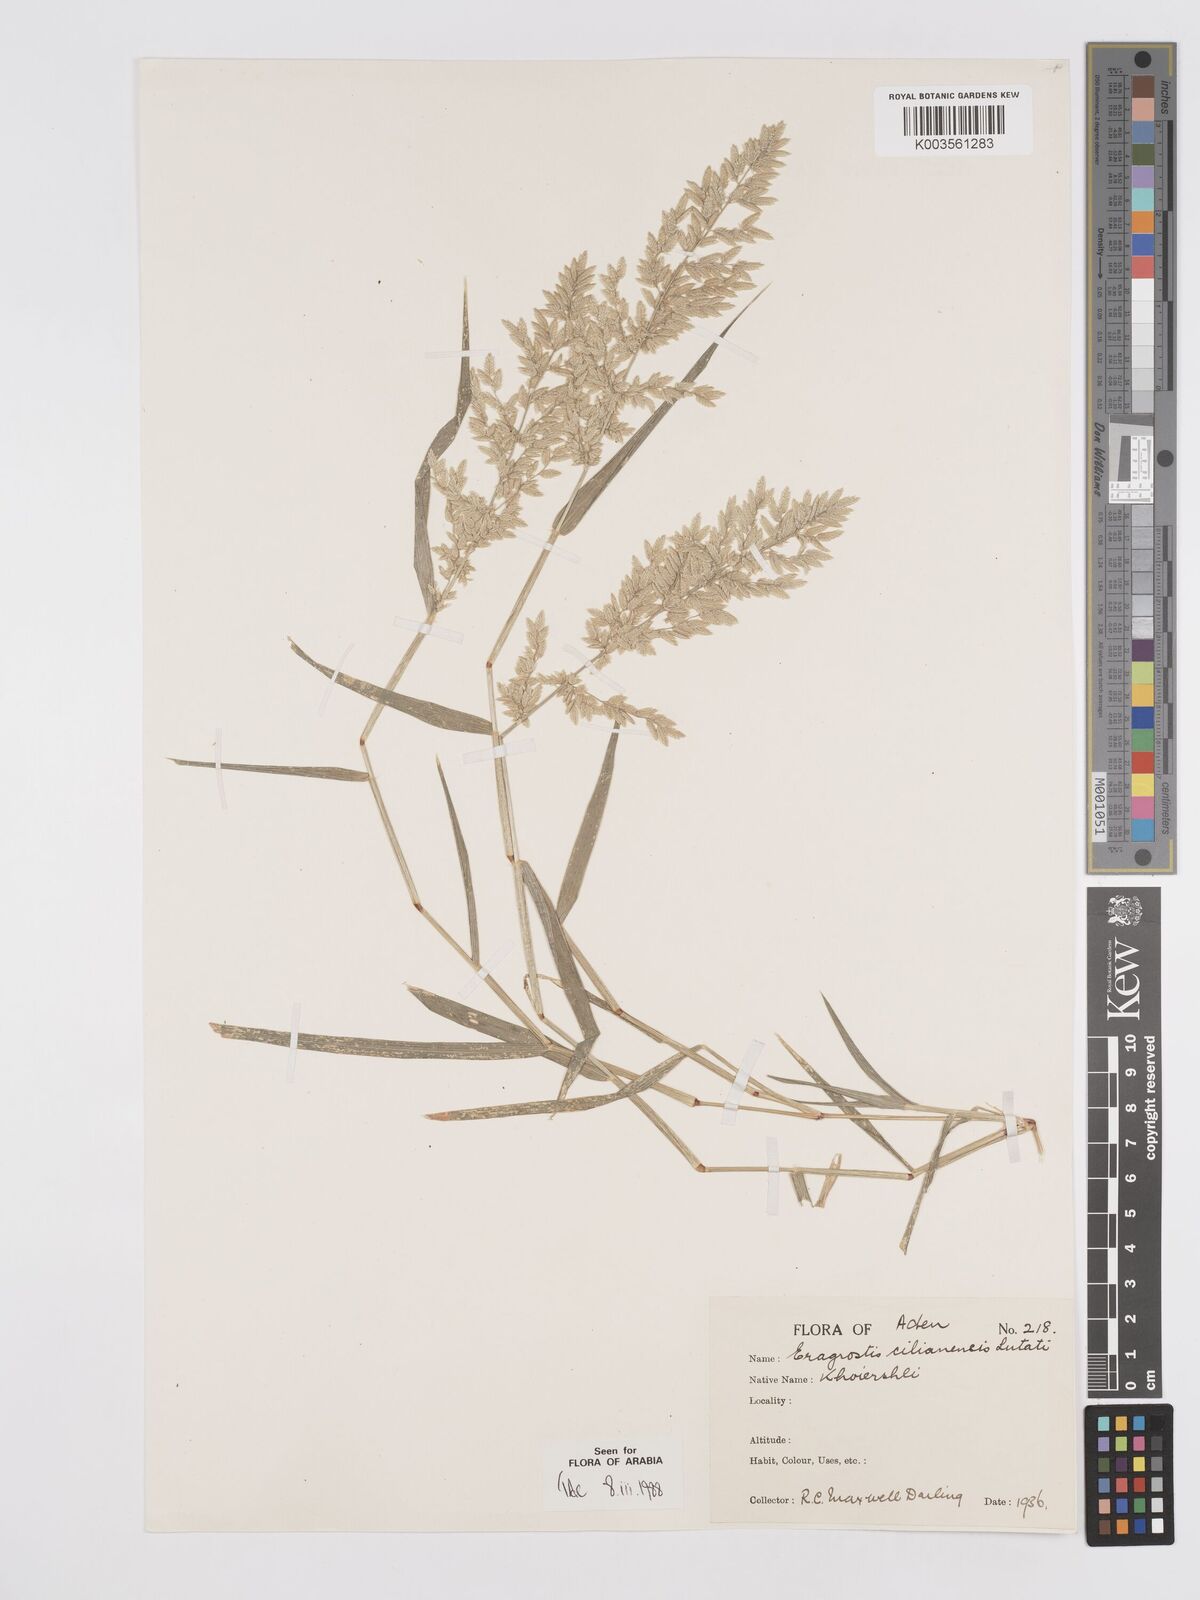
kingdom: Plantae
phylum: Tracheophyta
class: Liliopsida
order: Poales
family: Poaceae
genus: Eragrostis
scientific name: Eragrostis cilianensis
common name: Stinkgrass
